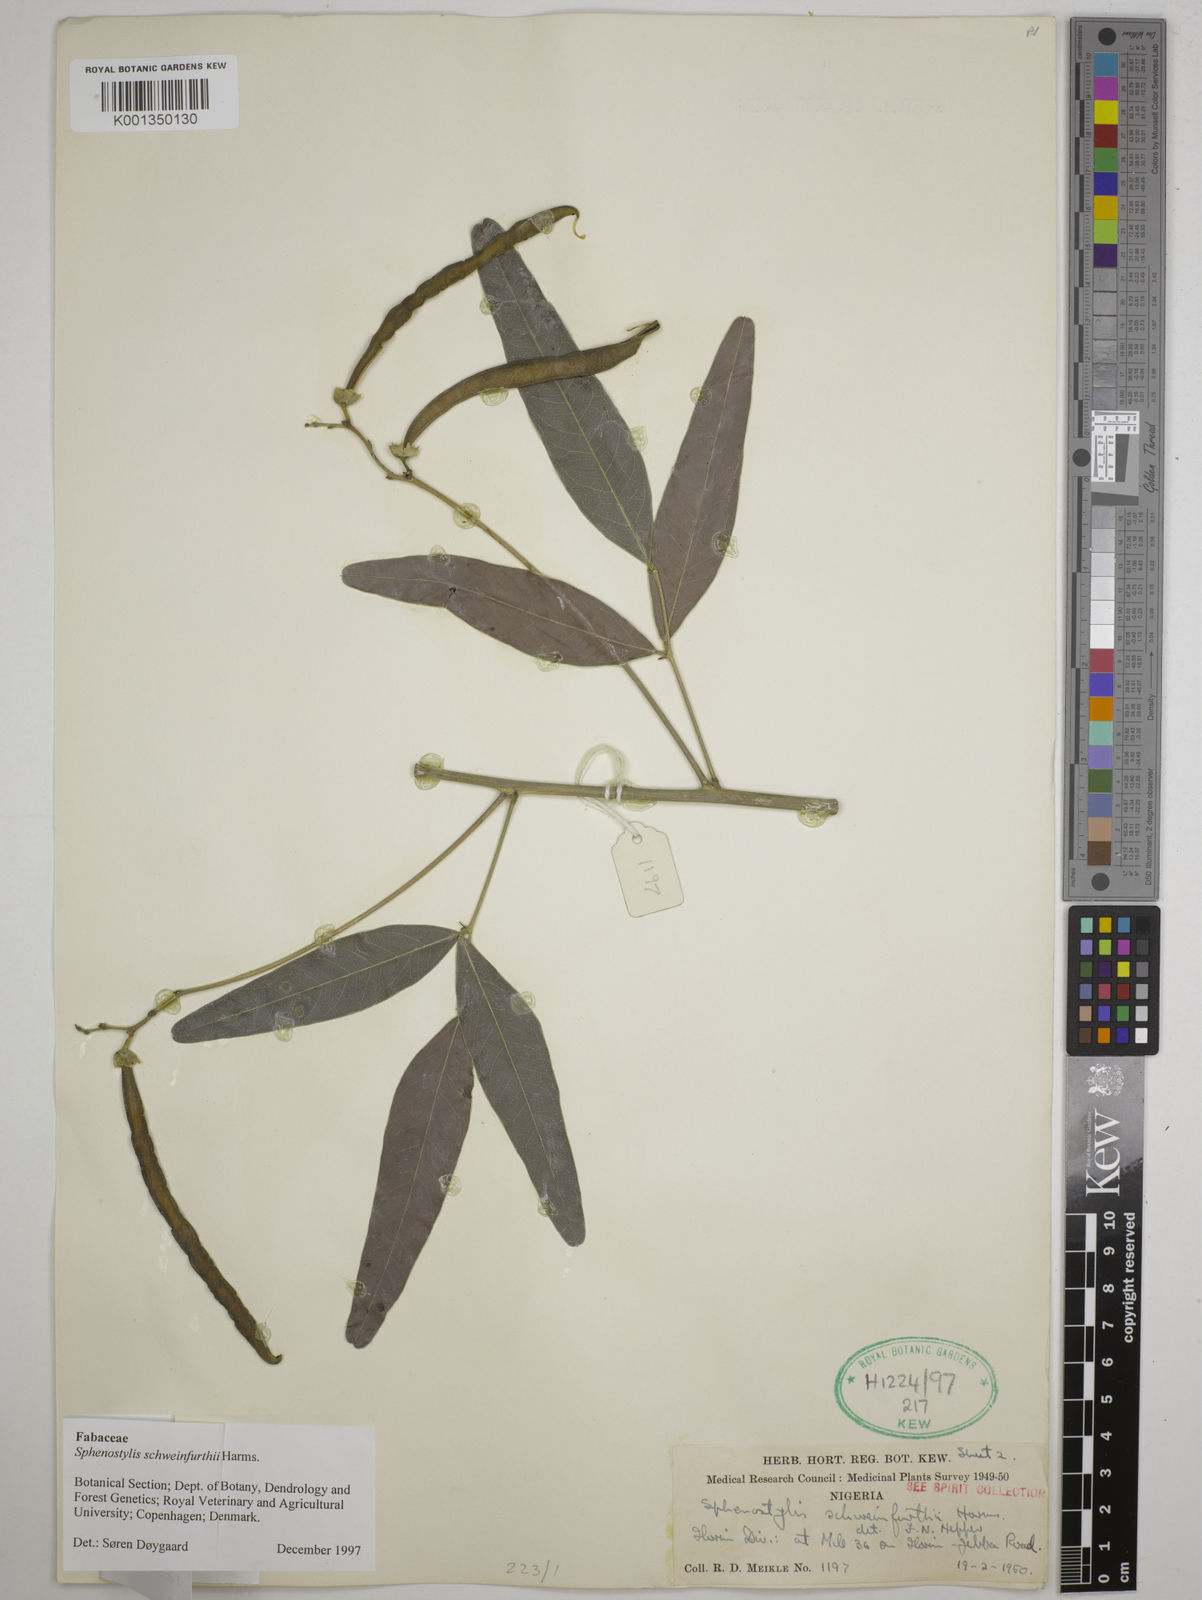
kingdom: Plantae
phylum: Tracheophyta
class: Magnoliopsida
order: Fabales
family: Fabaceae
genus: Sphenostylis
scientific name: Sphenostylis schweinfurthii
